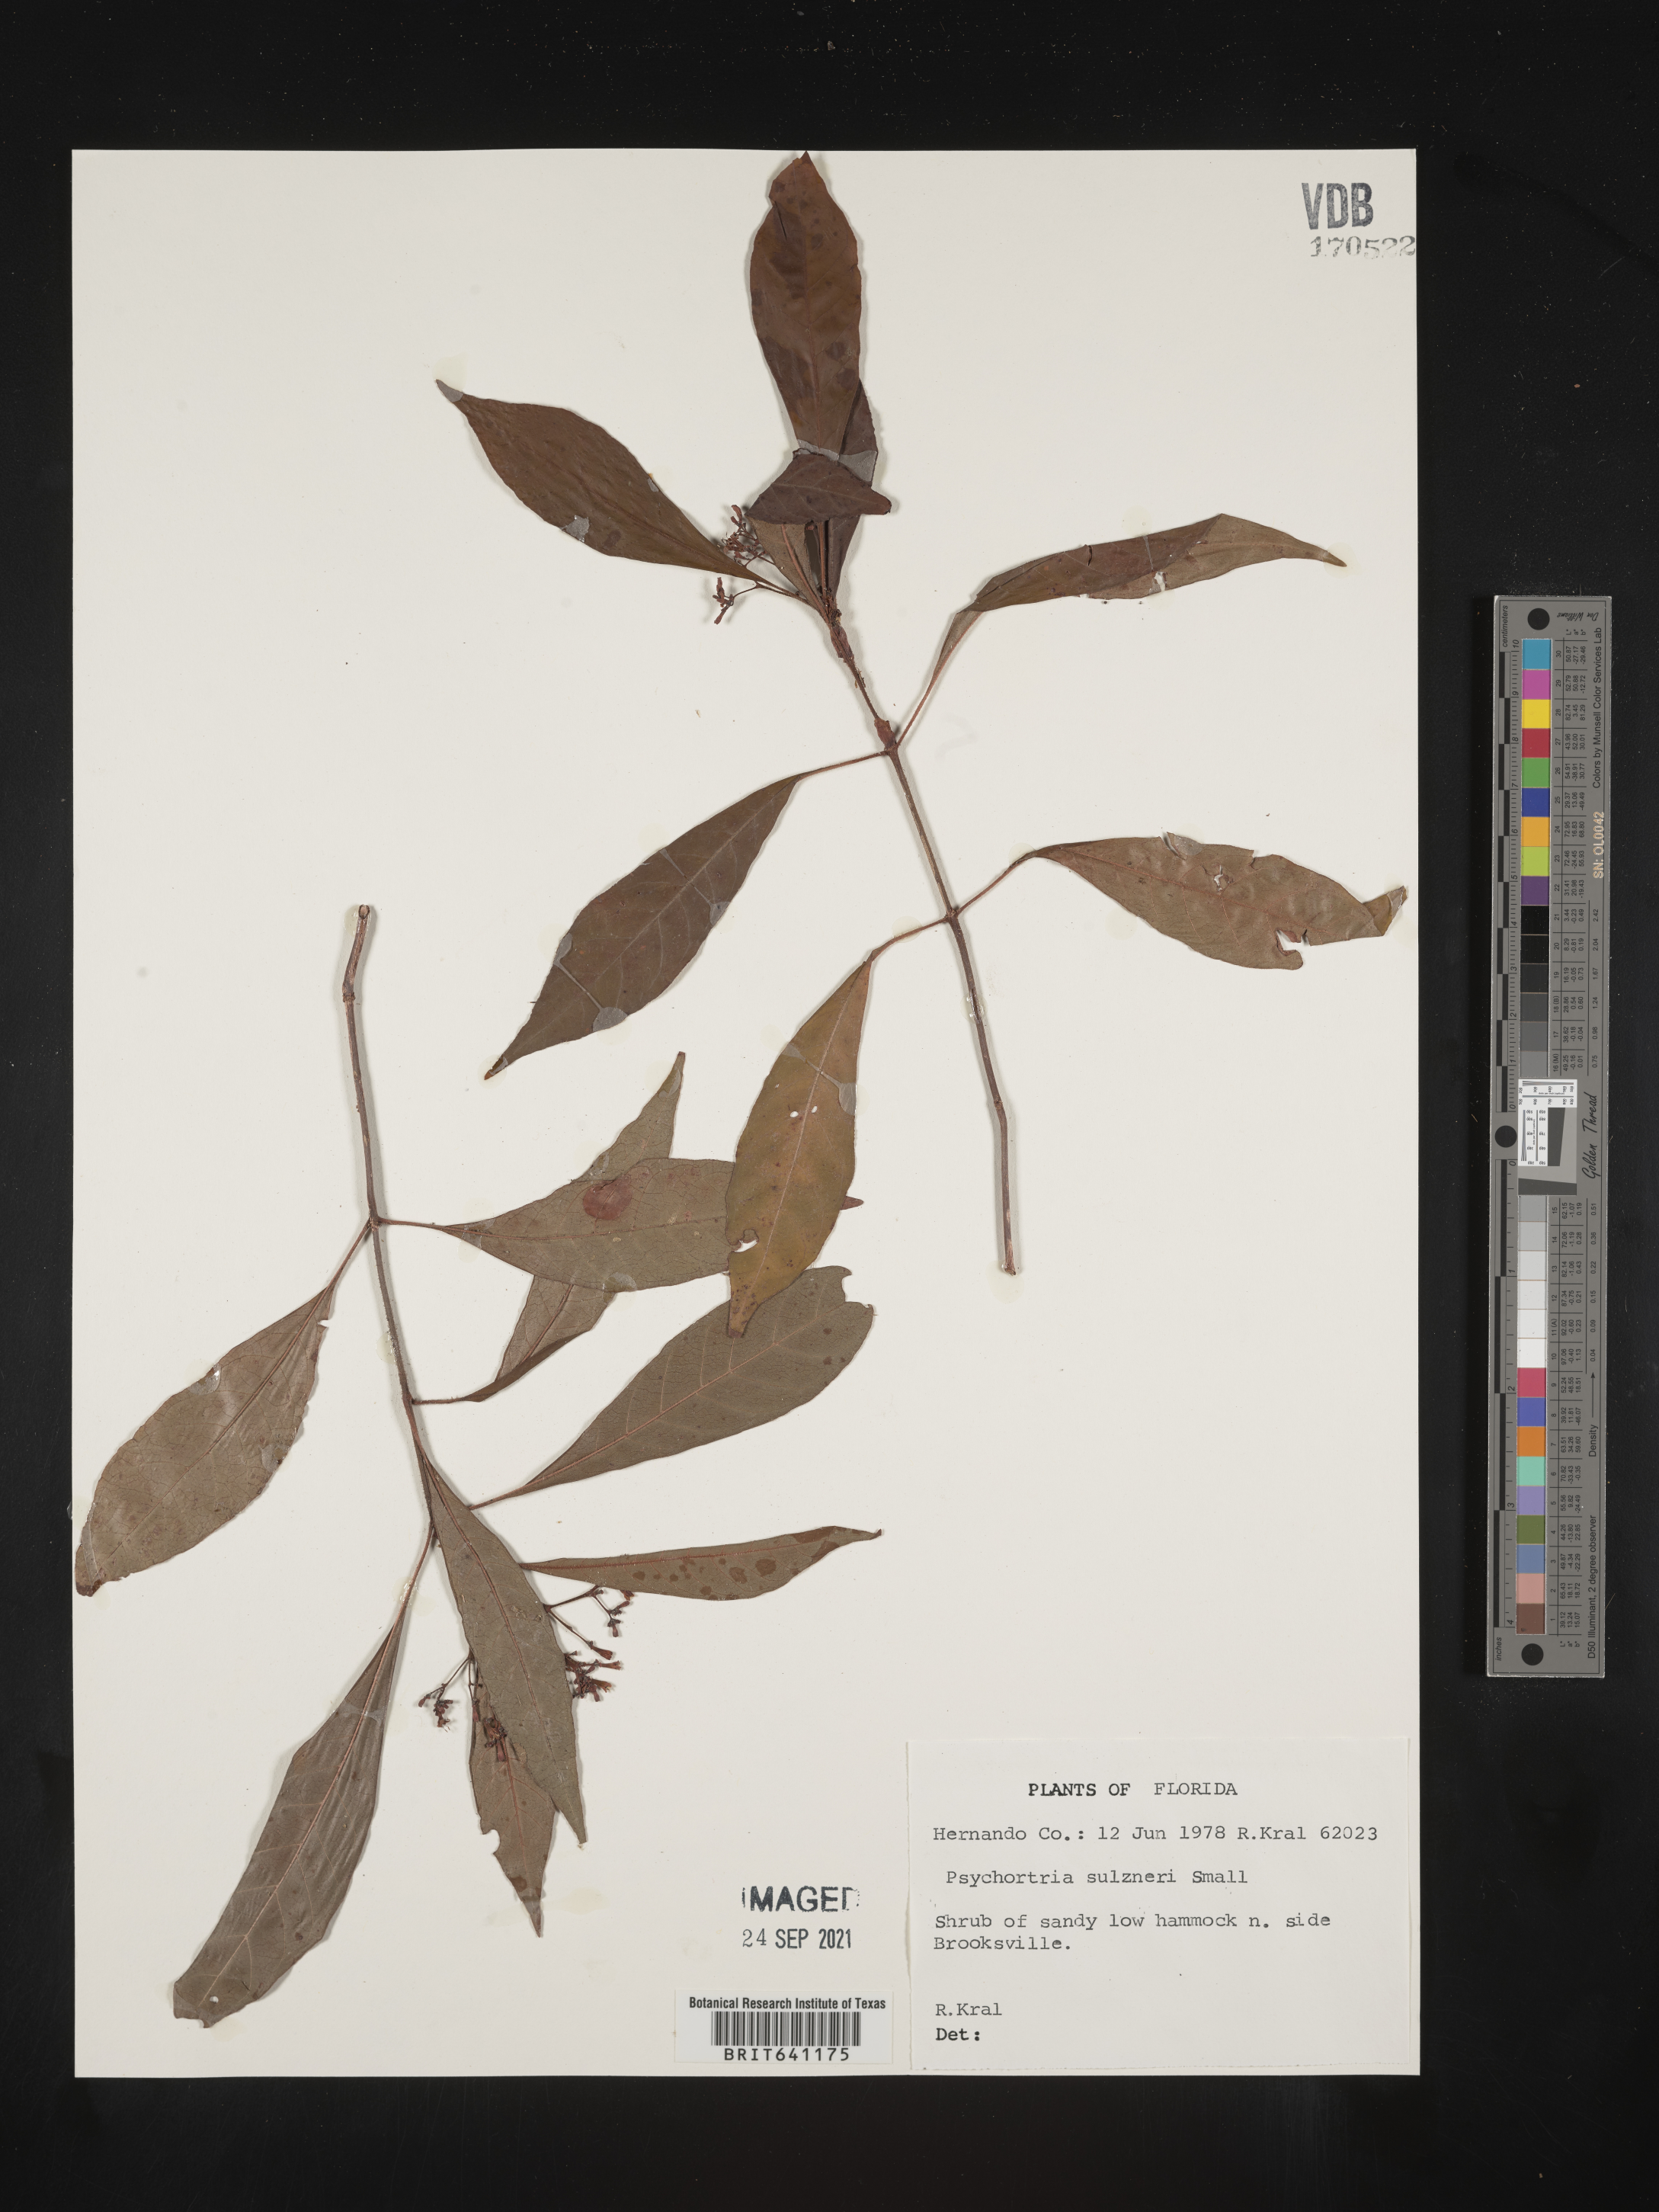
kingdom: Plantae
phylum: Tracheophyta
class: Magnoliopsida
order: Gentianales
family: Rubiaceae
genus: Psychotria
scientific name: Psychotria tenuifolia
